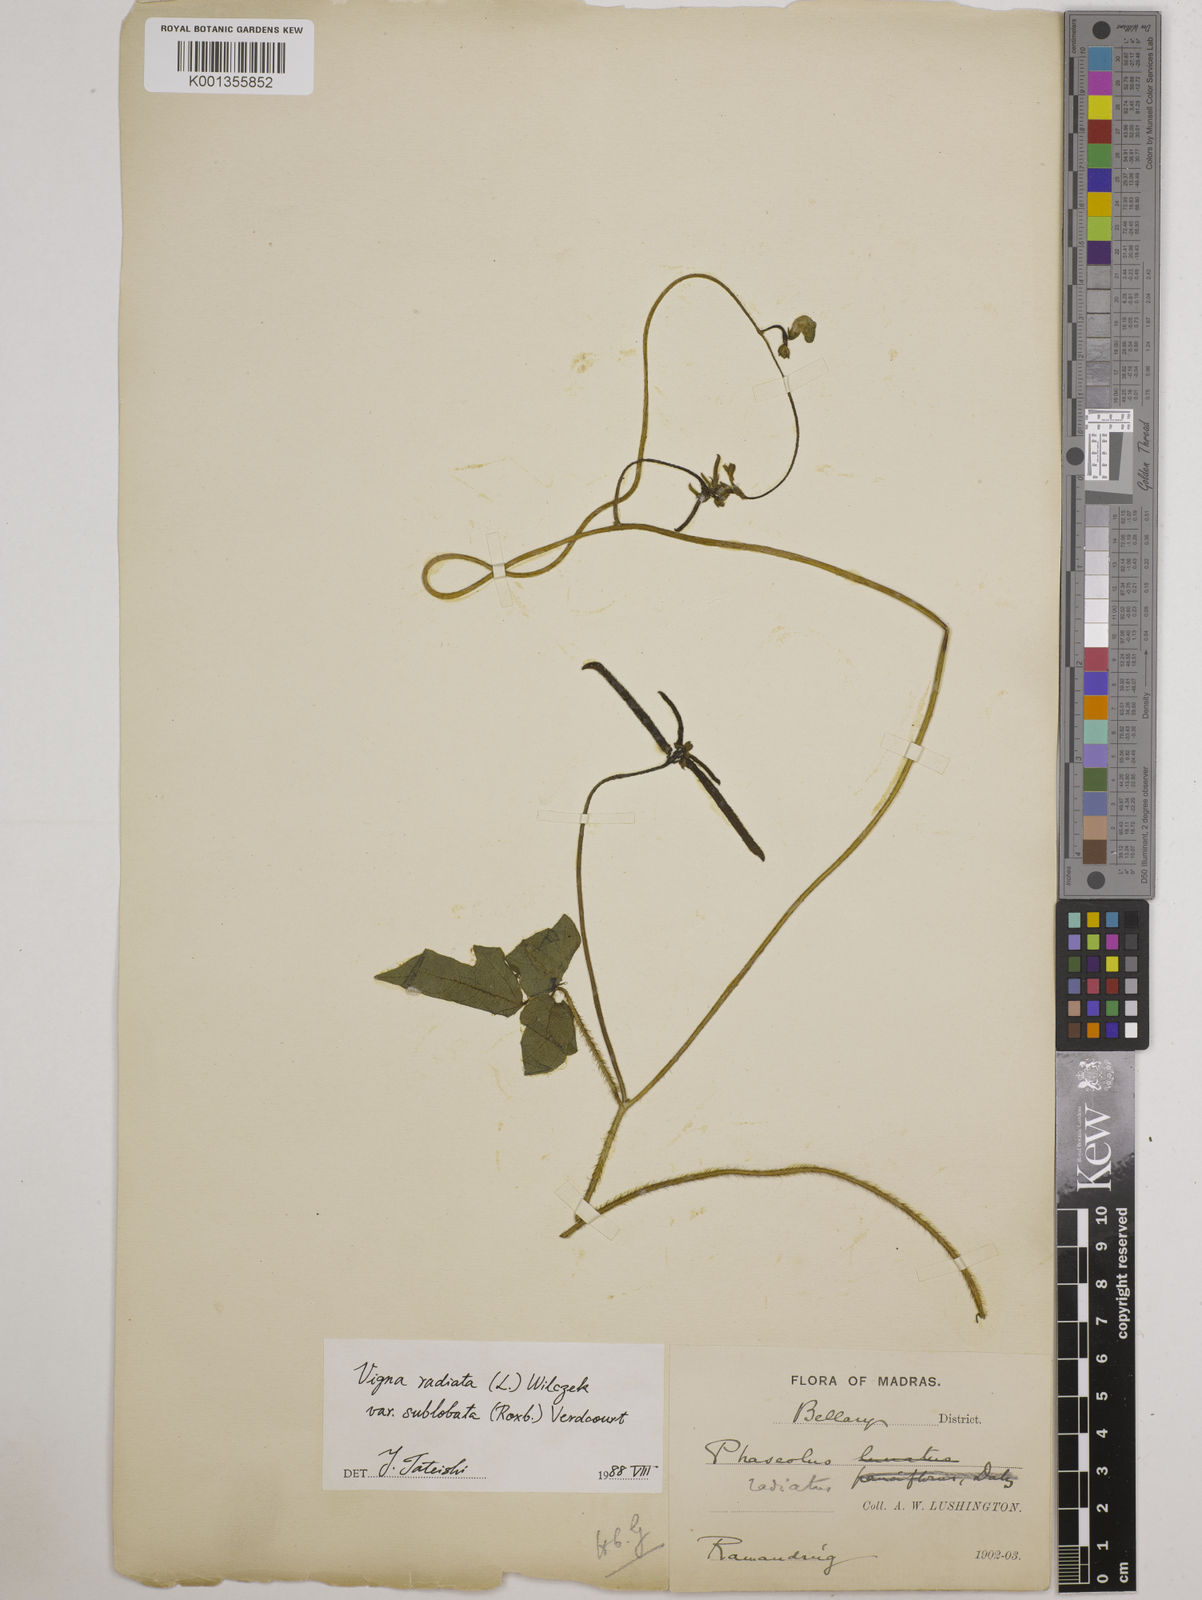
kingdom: Plantae
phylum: Tracheophyta
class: Magnoliopsida
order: Fabales
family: Fabaceae
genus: Vigna
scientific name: Vigna radiata
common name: Mung-bean
